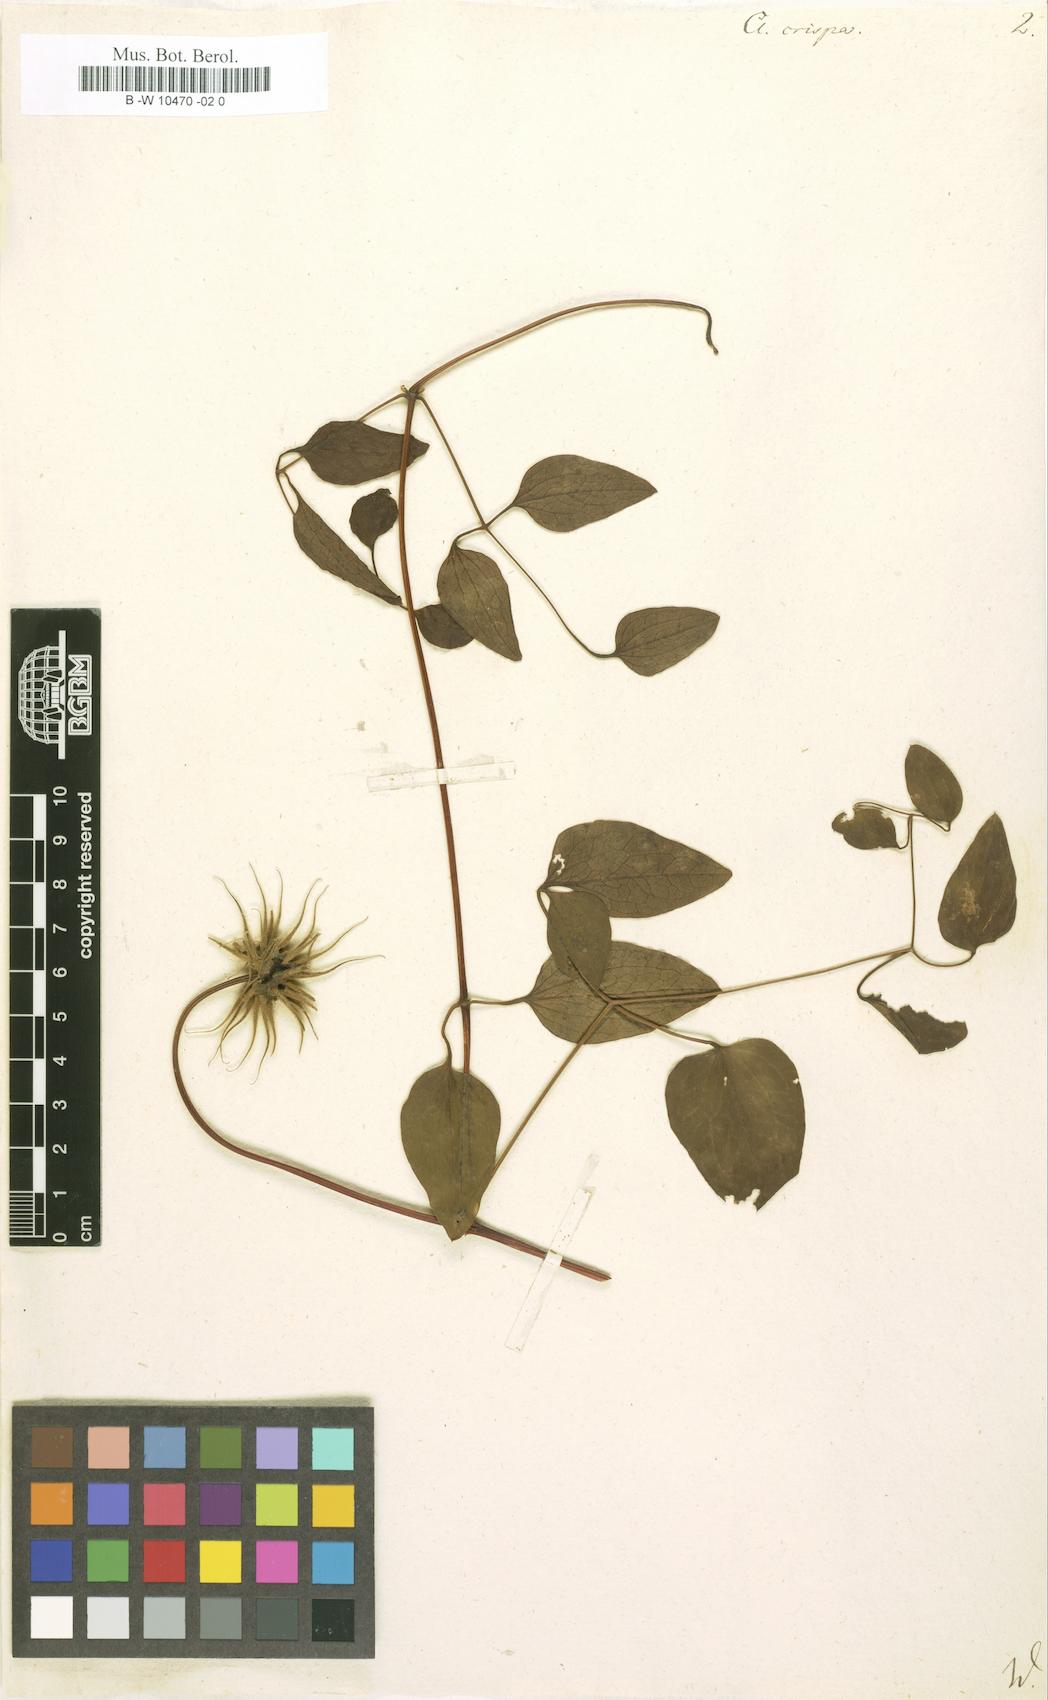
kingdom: Plantae
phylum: Tracheophyta
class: Magnoliopsida
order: Ranunculales
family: Ranunculaceae
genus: Clematis
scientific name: Clematis crispa
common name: Curly clematis
